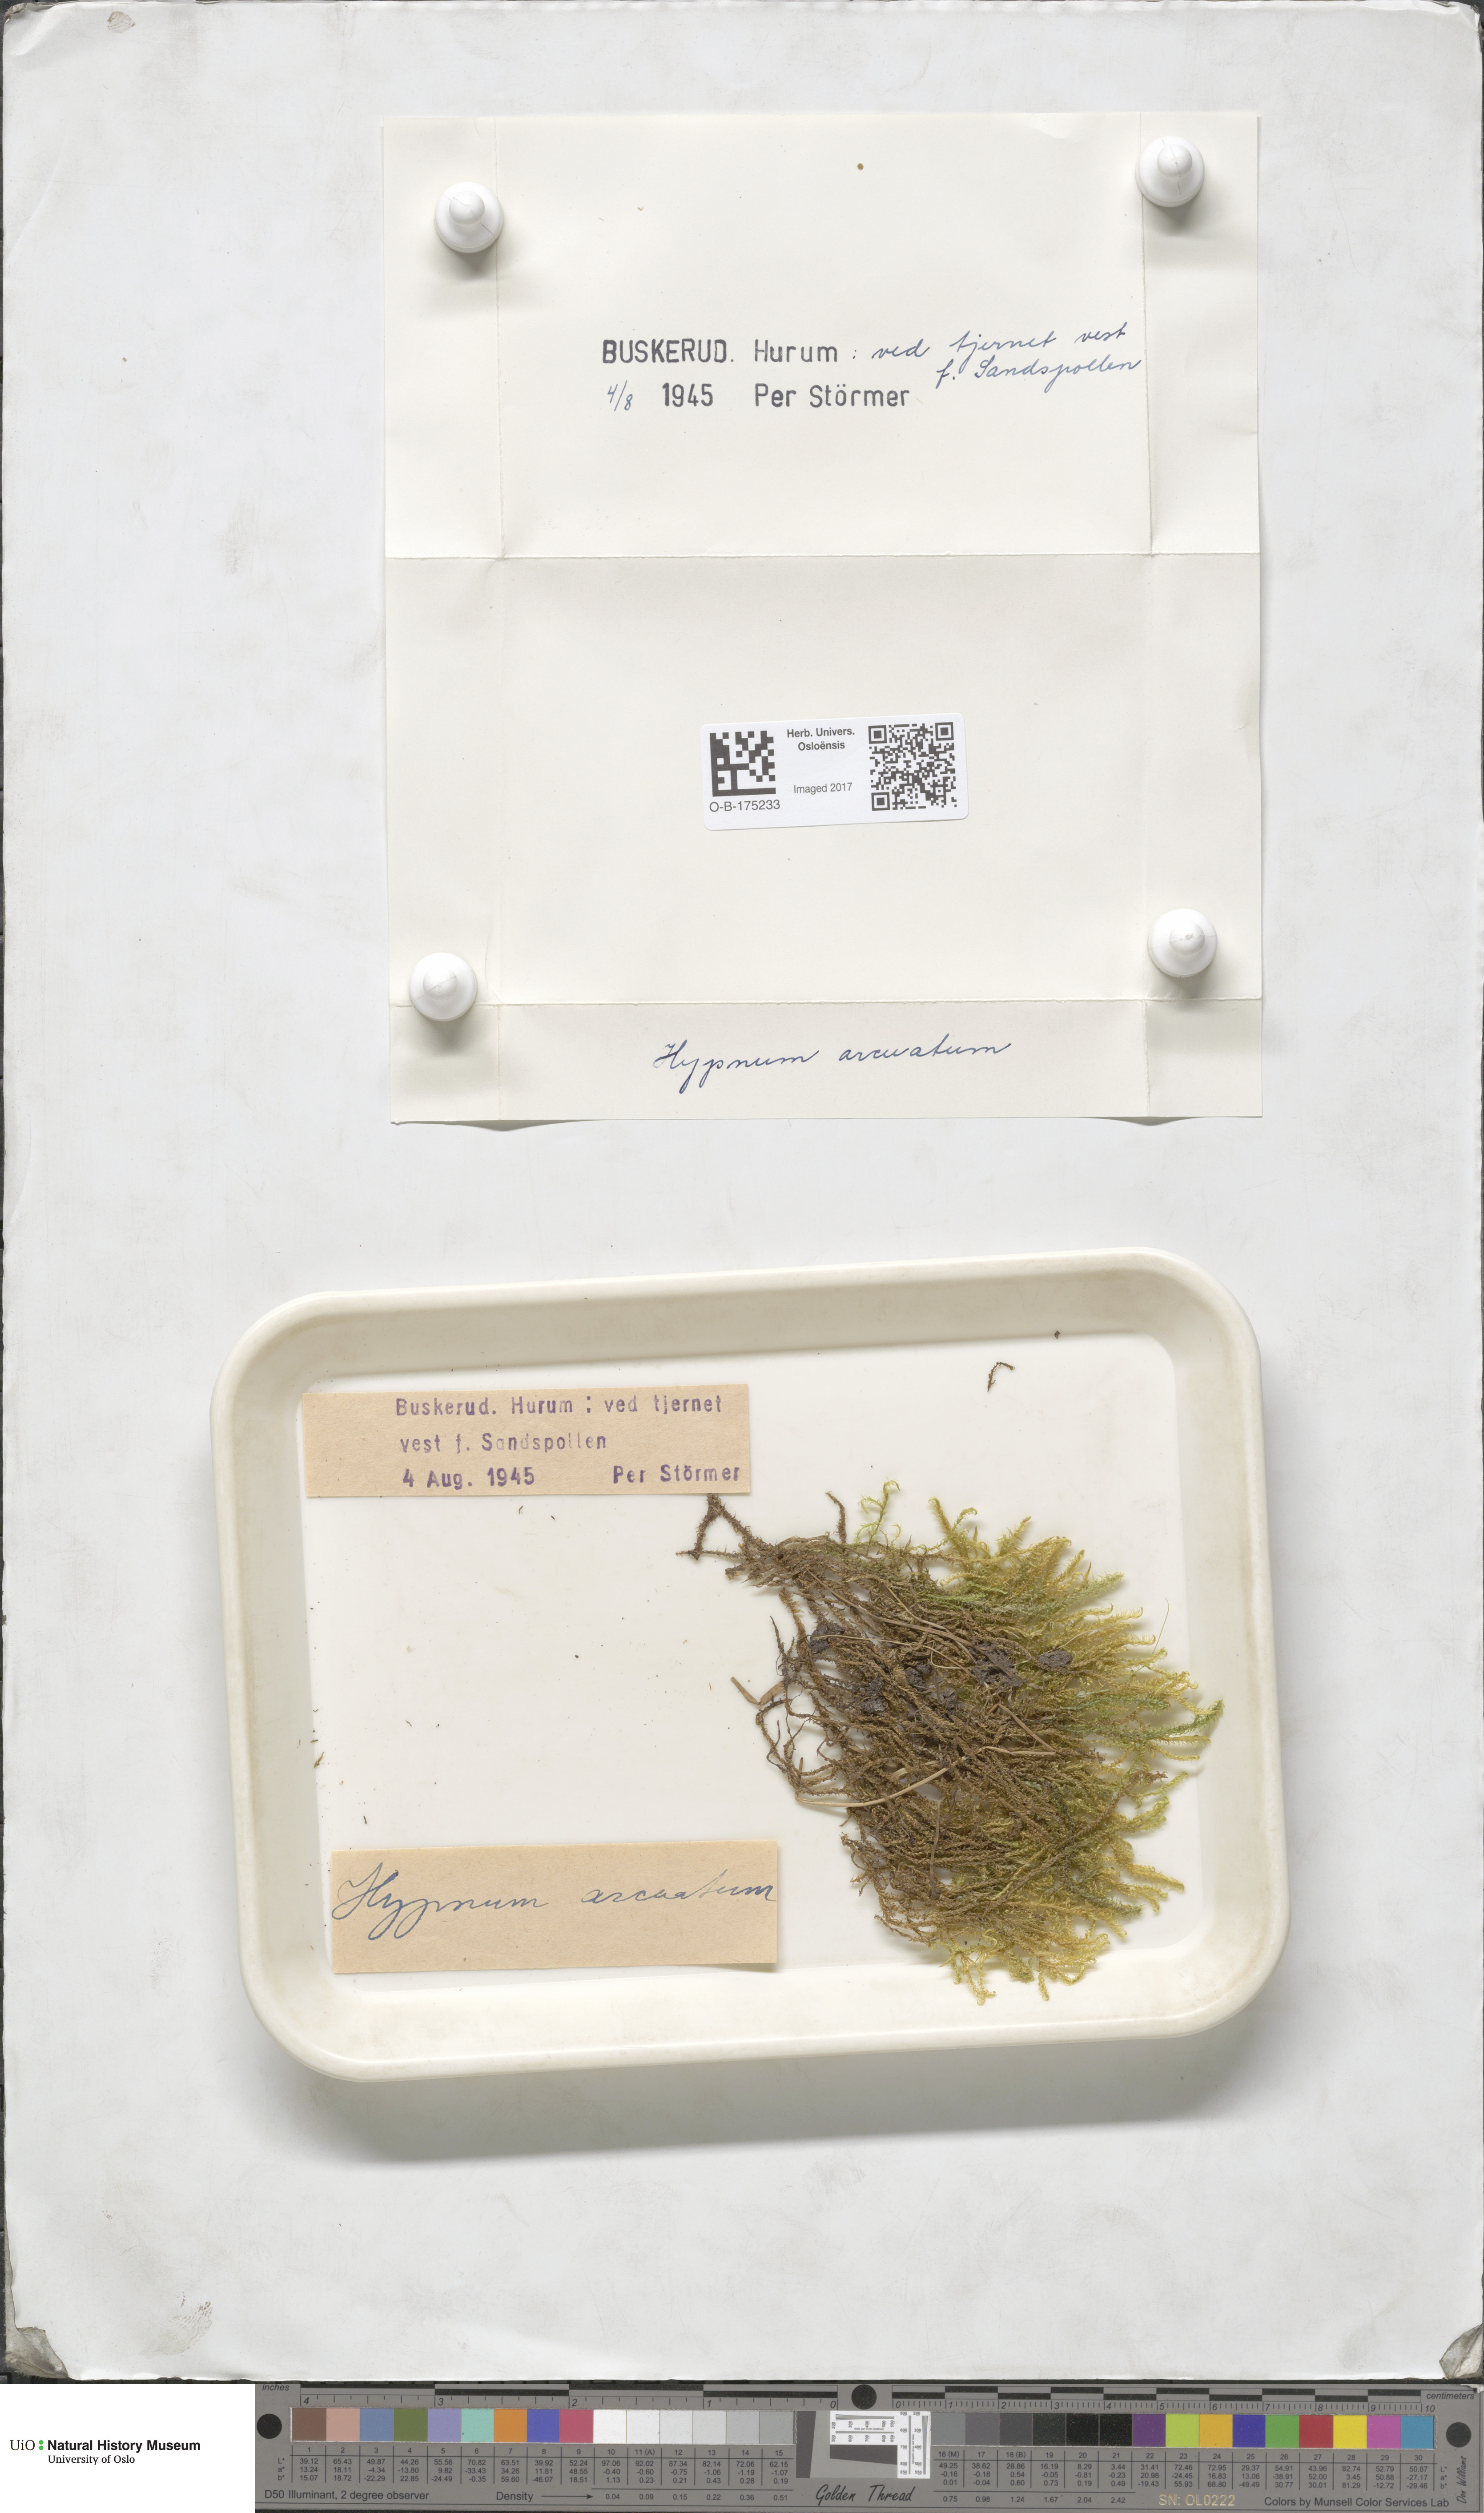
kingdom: Plantae
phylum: Bryophyta
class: Bryopsida
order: Hypnales
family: Pylaisiaceae
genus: Calliergonella
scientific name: Calliergonella lindbergii
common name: Lindberg's plait-moss
